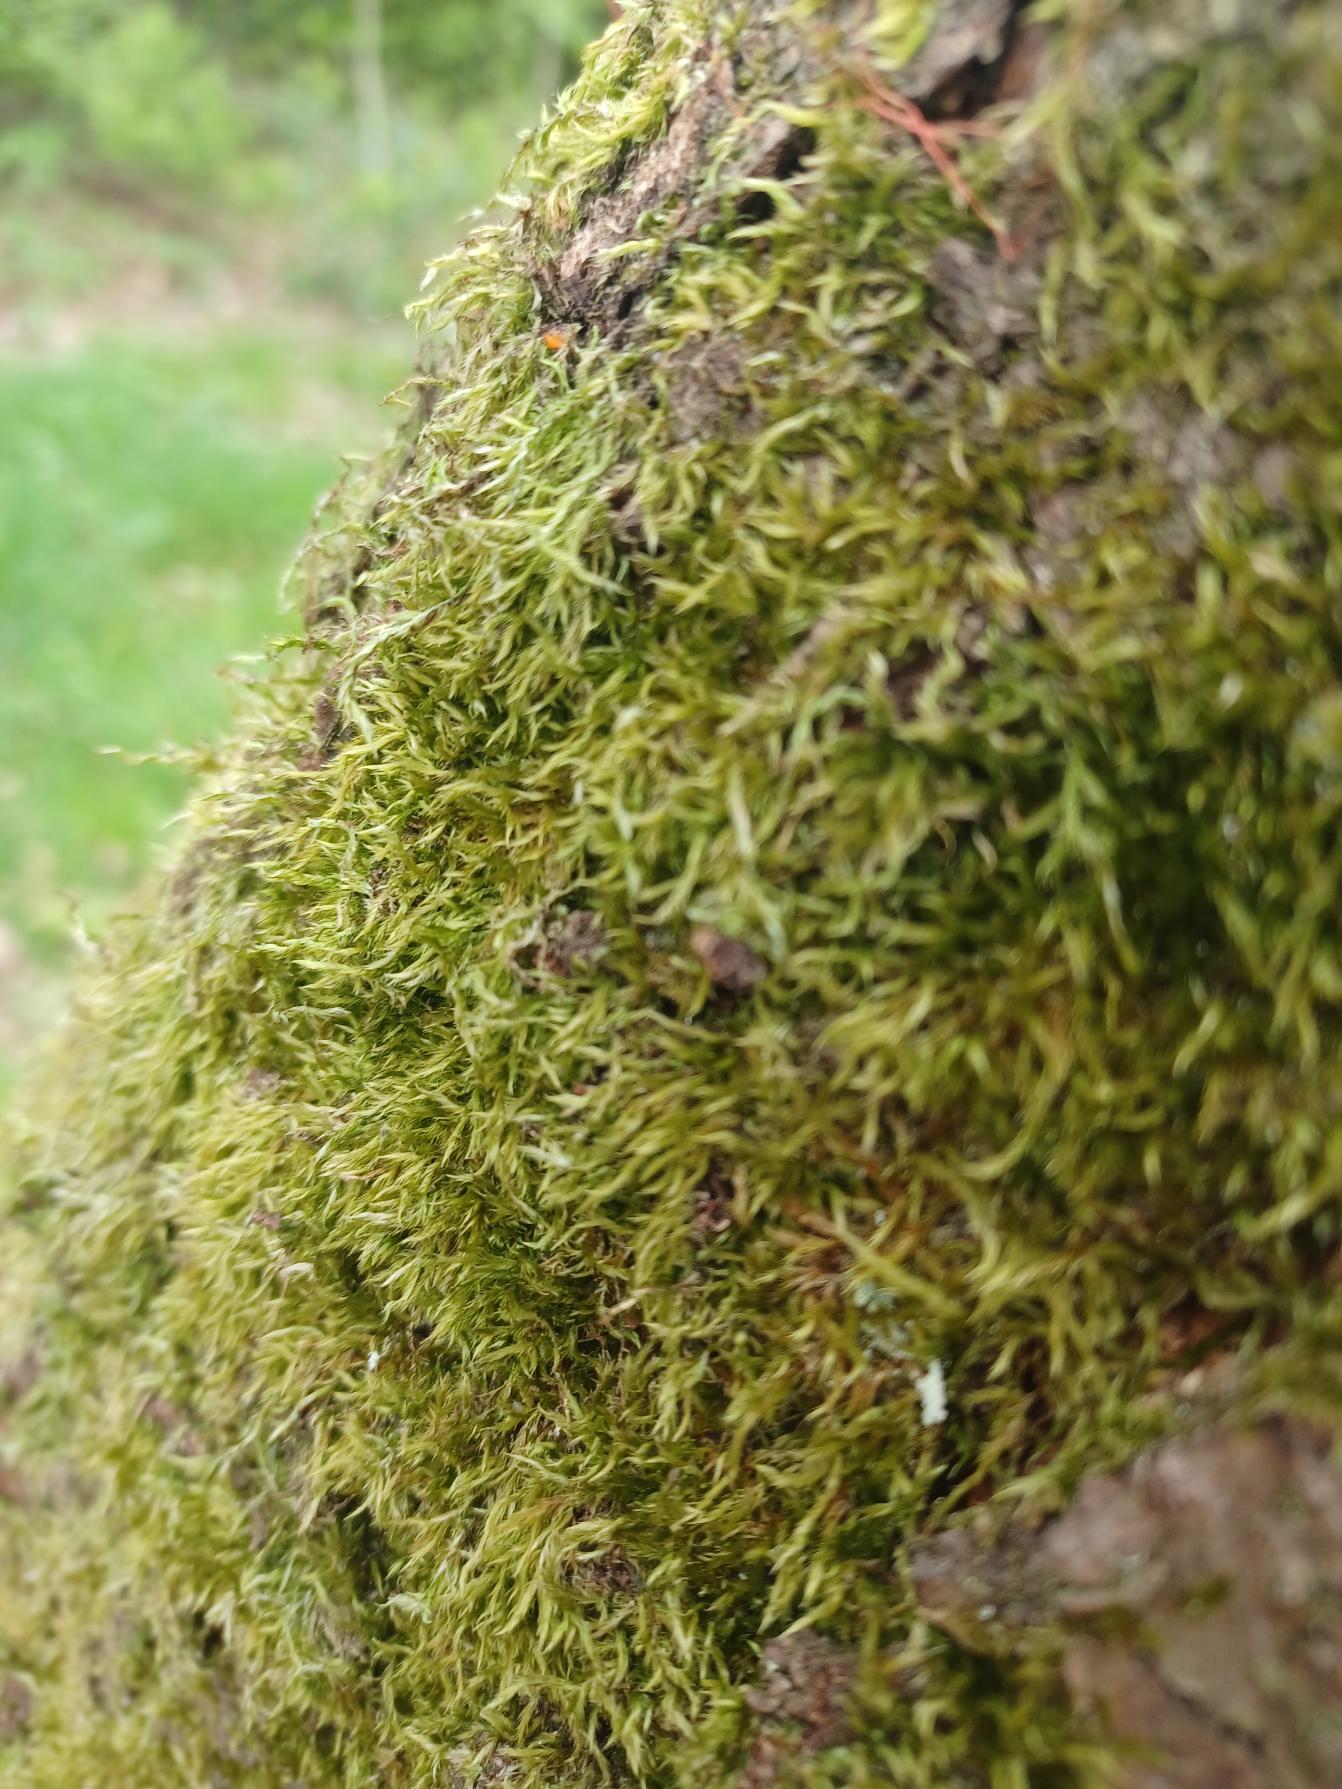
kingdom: Plantae
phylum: Bryophyta
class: Bryopsida
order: Hypnales
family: Hypnaceae
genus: Hypnum
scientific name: Hypnum
